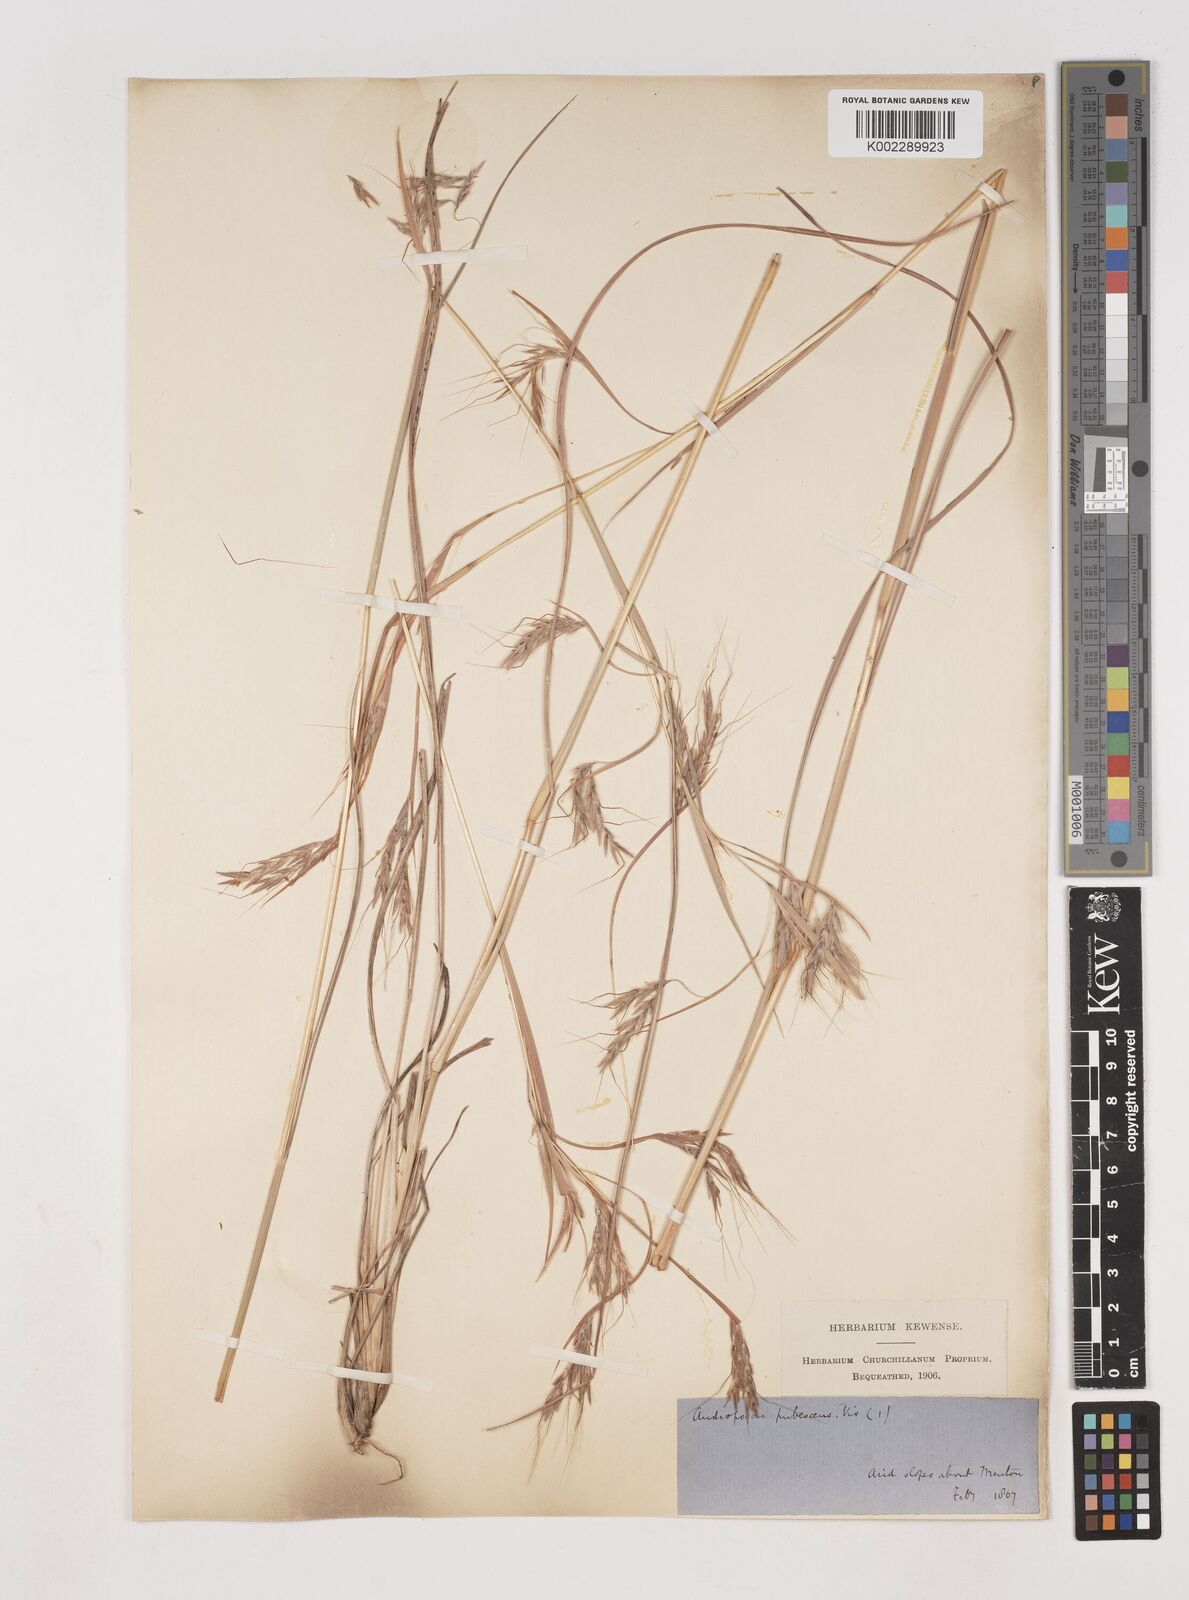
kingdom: Plantae
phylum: Tracheophyta
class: Liliopsida
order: Poales
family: Poaceae
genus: Hyparrhenia
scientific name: Hyparrhenia hirta
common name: Thatching grass
